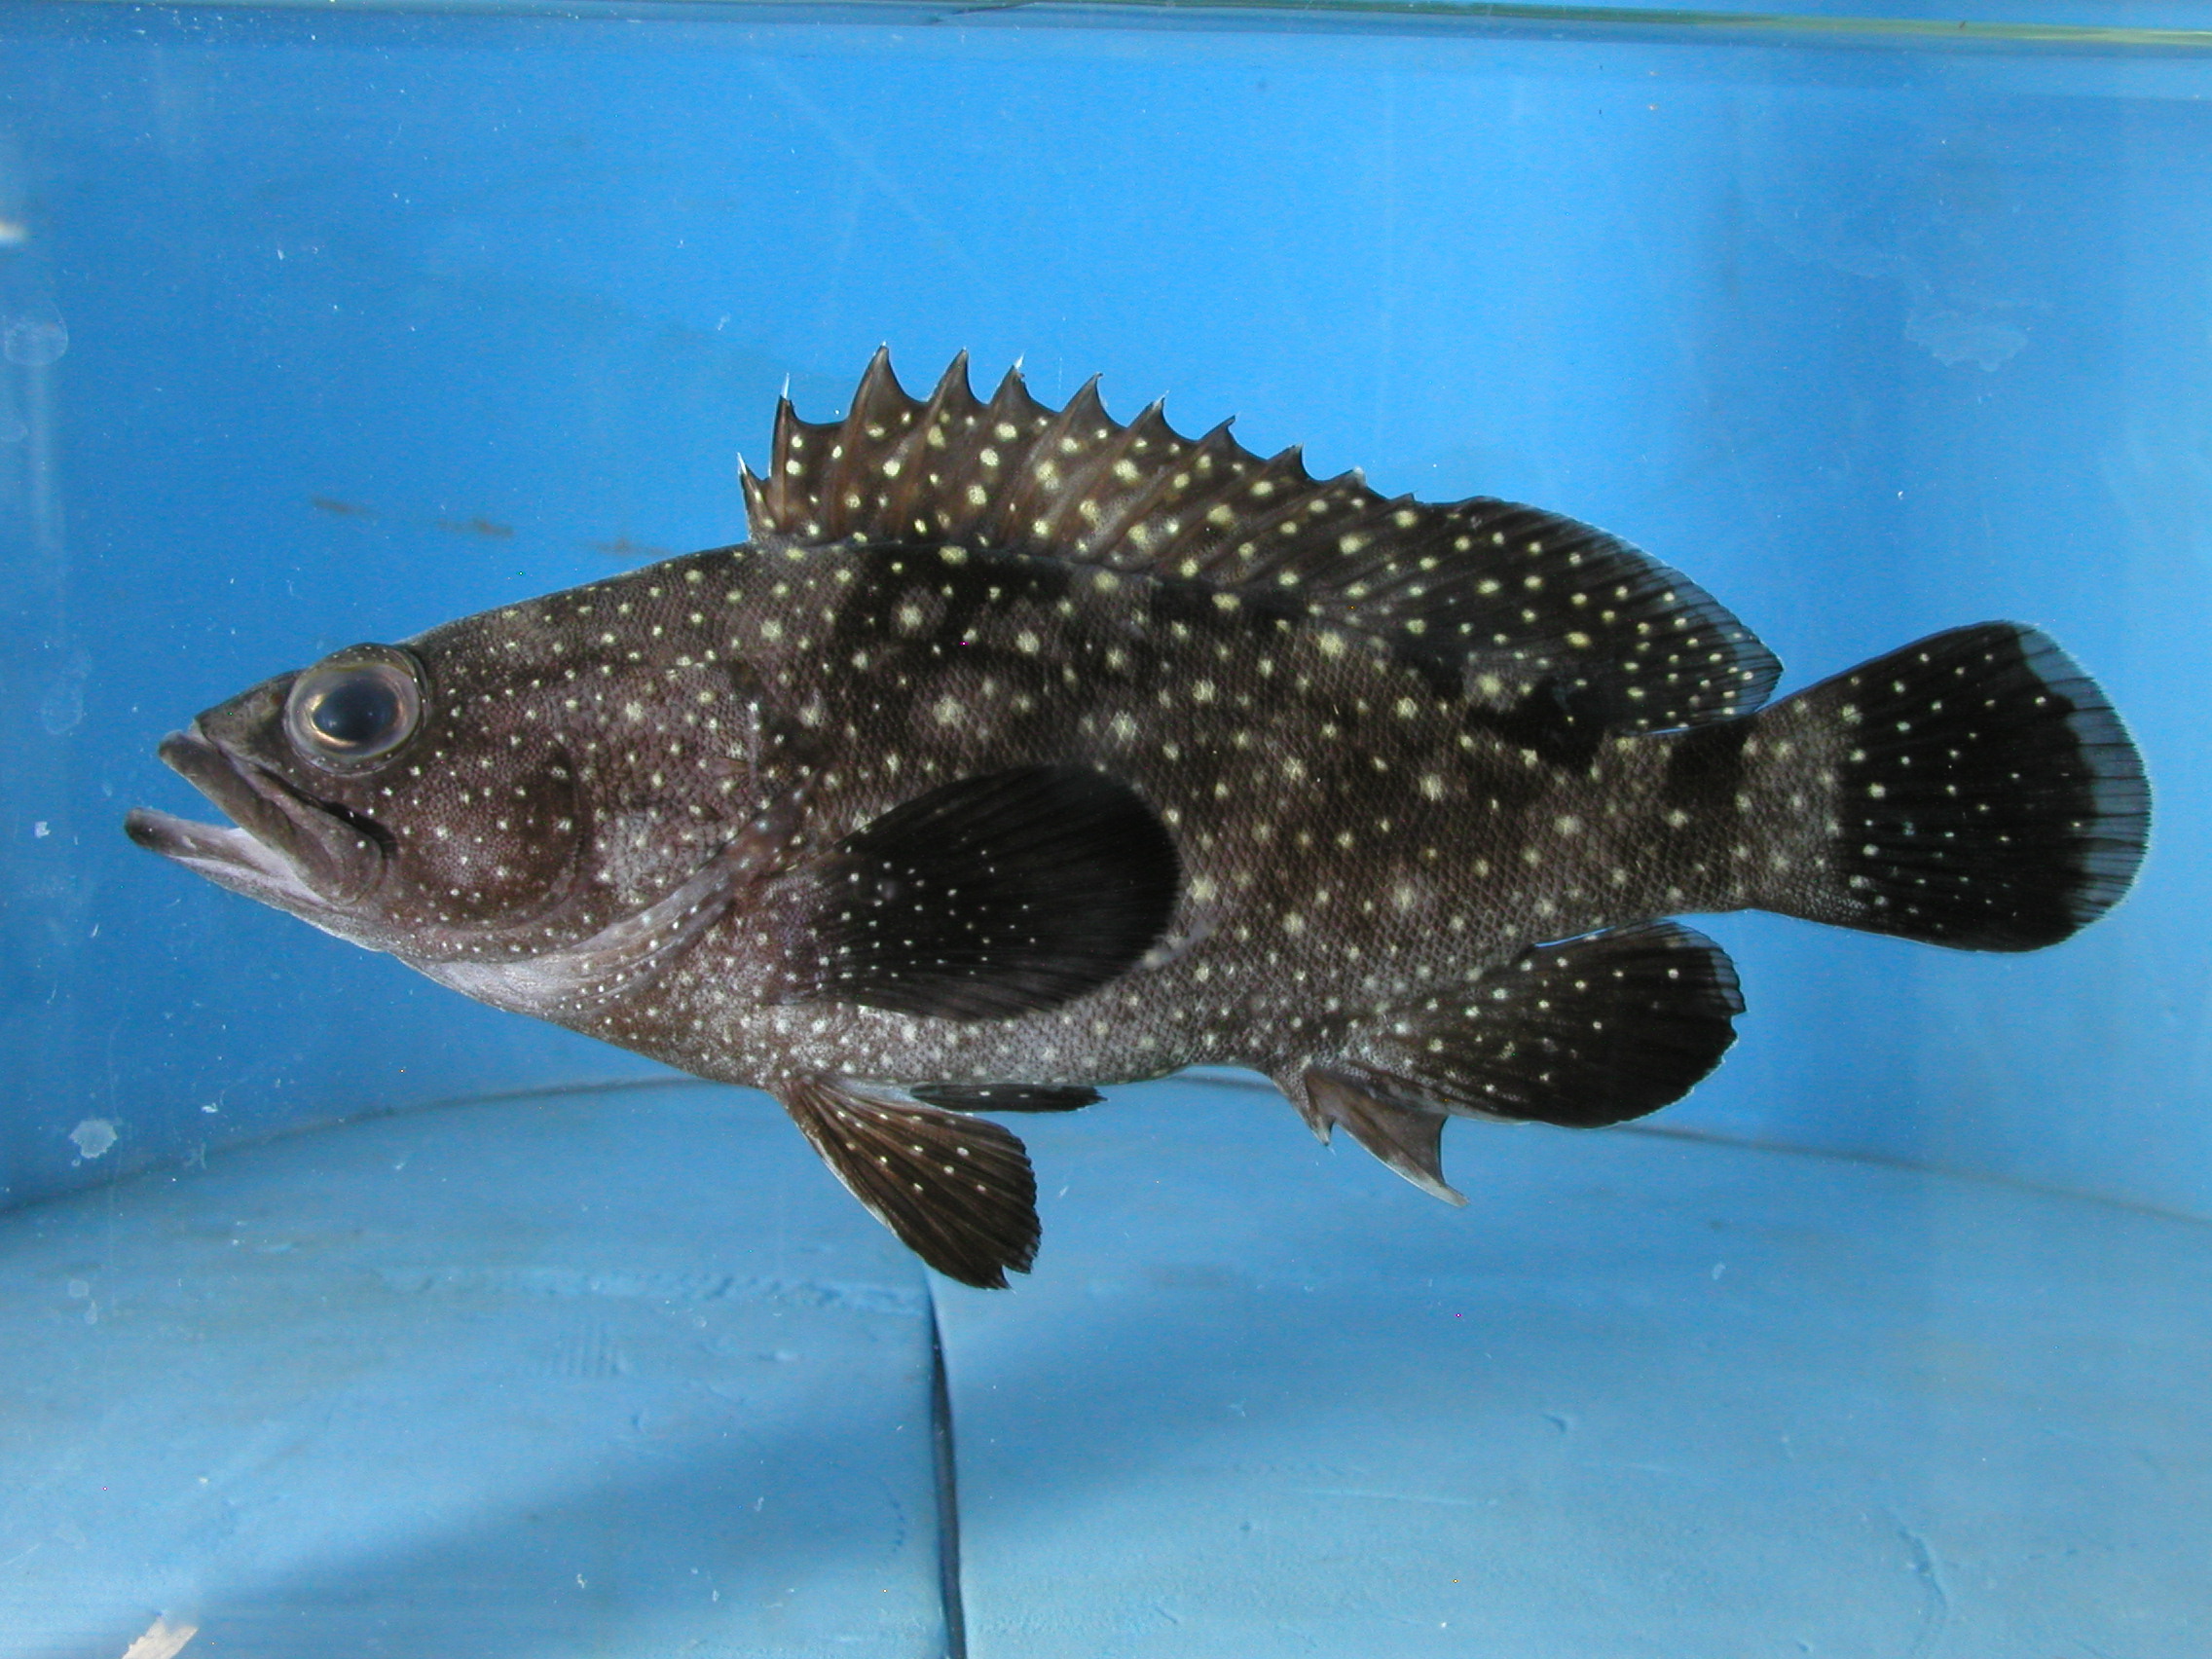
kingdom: Animalia
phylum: Chordata
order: Perciformes
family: Serranidae
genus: Epinephelus
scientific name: Epinephelus coeruleopunctatus
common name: Whitespotted grouper
